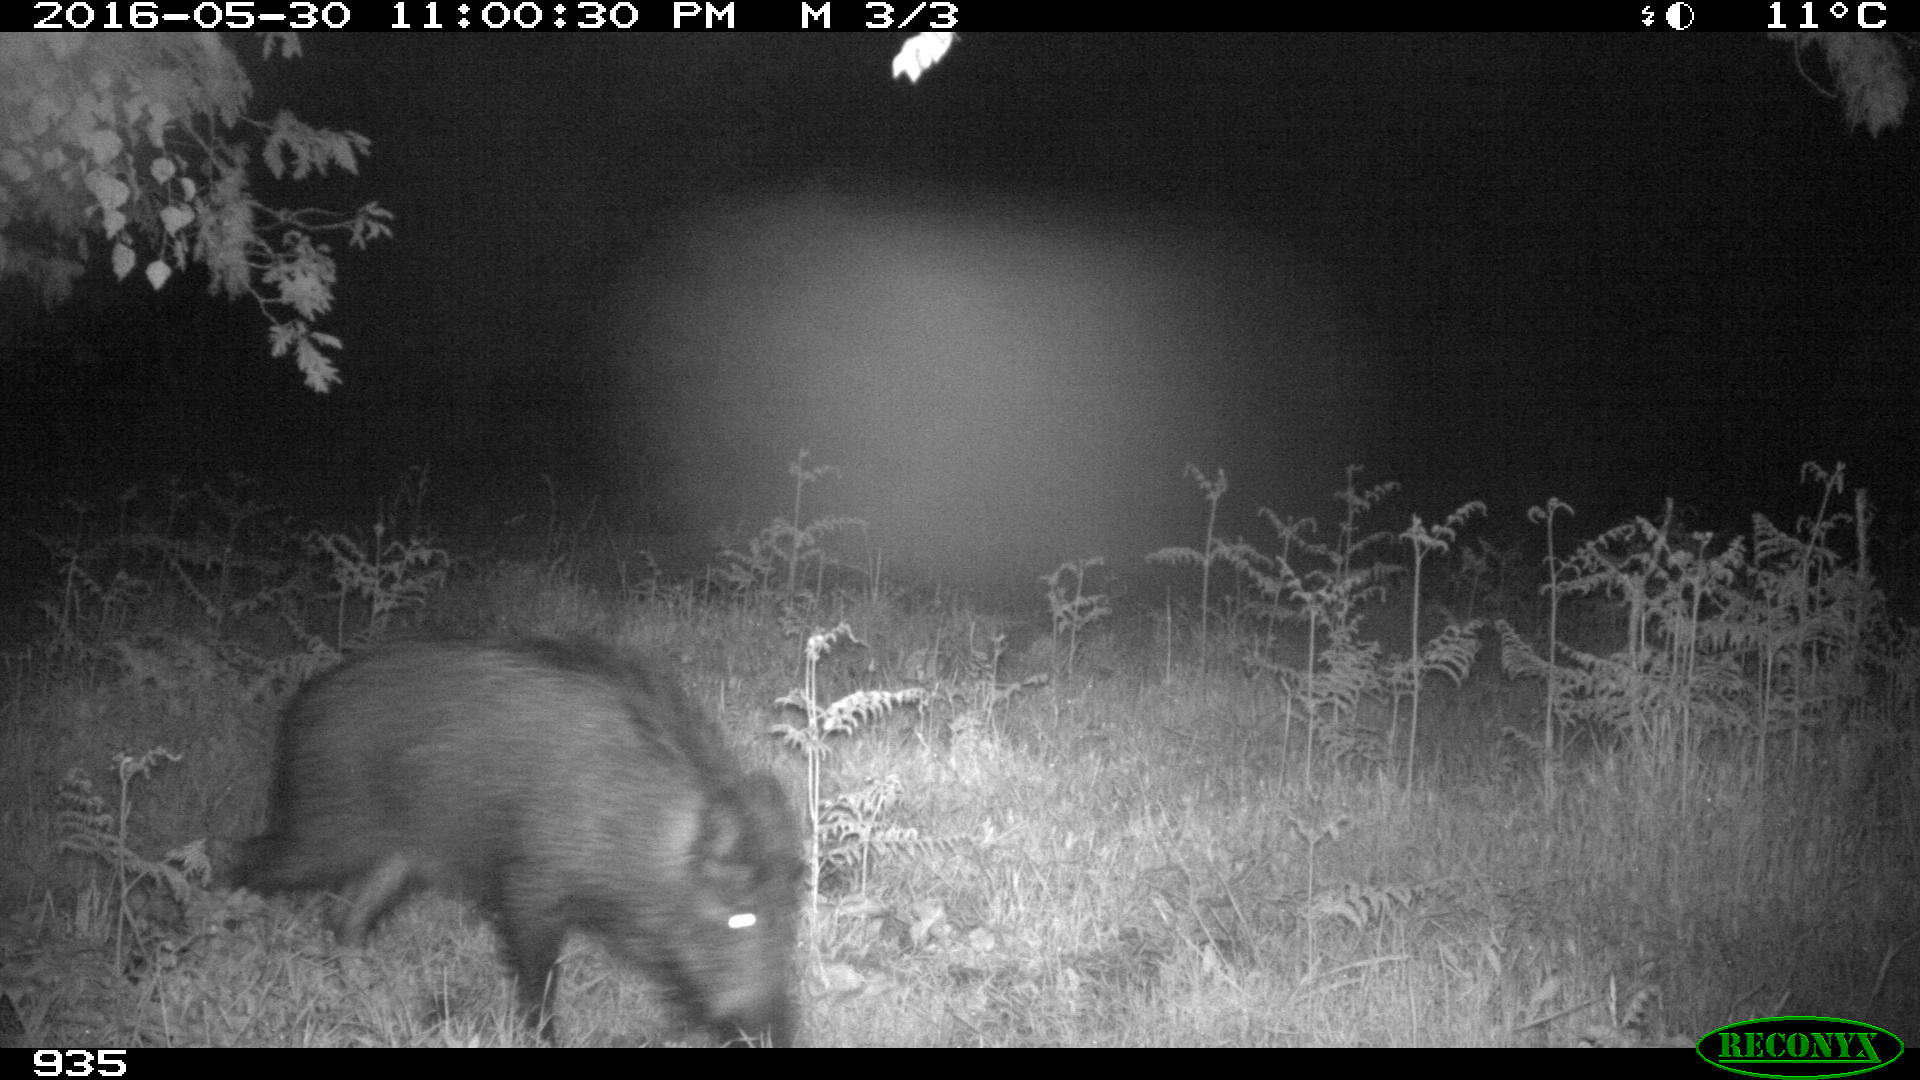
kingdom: Animalia
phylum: Chordata
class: Mammalia
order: Artiodactyla
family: Suidae
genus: Sus
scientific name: Sus scrofa
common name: Wild boar
